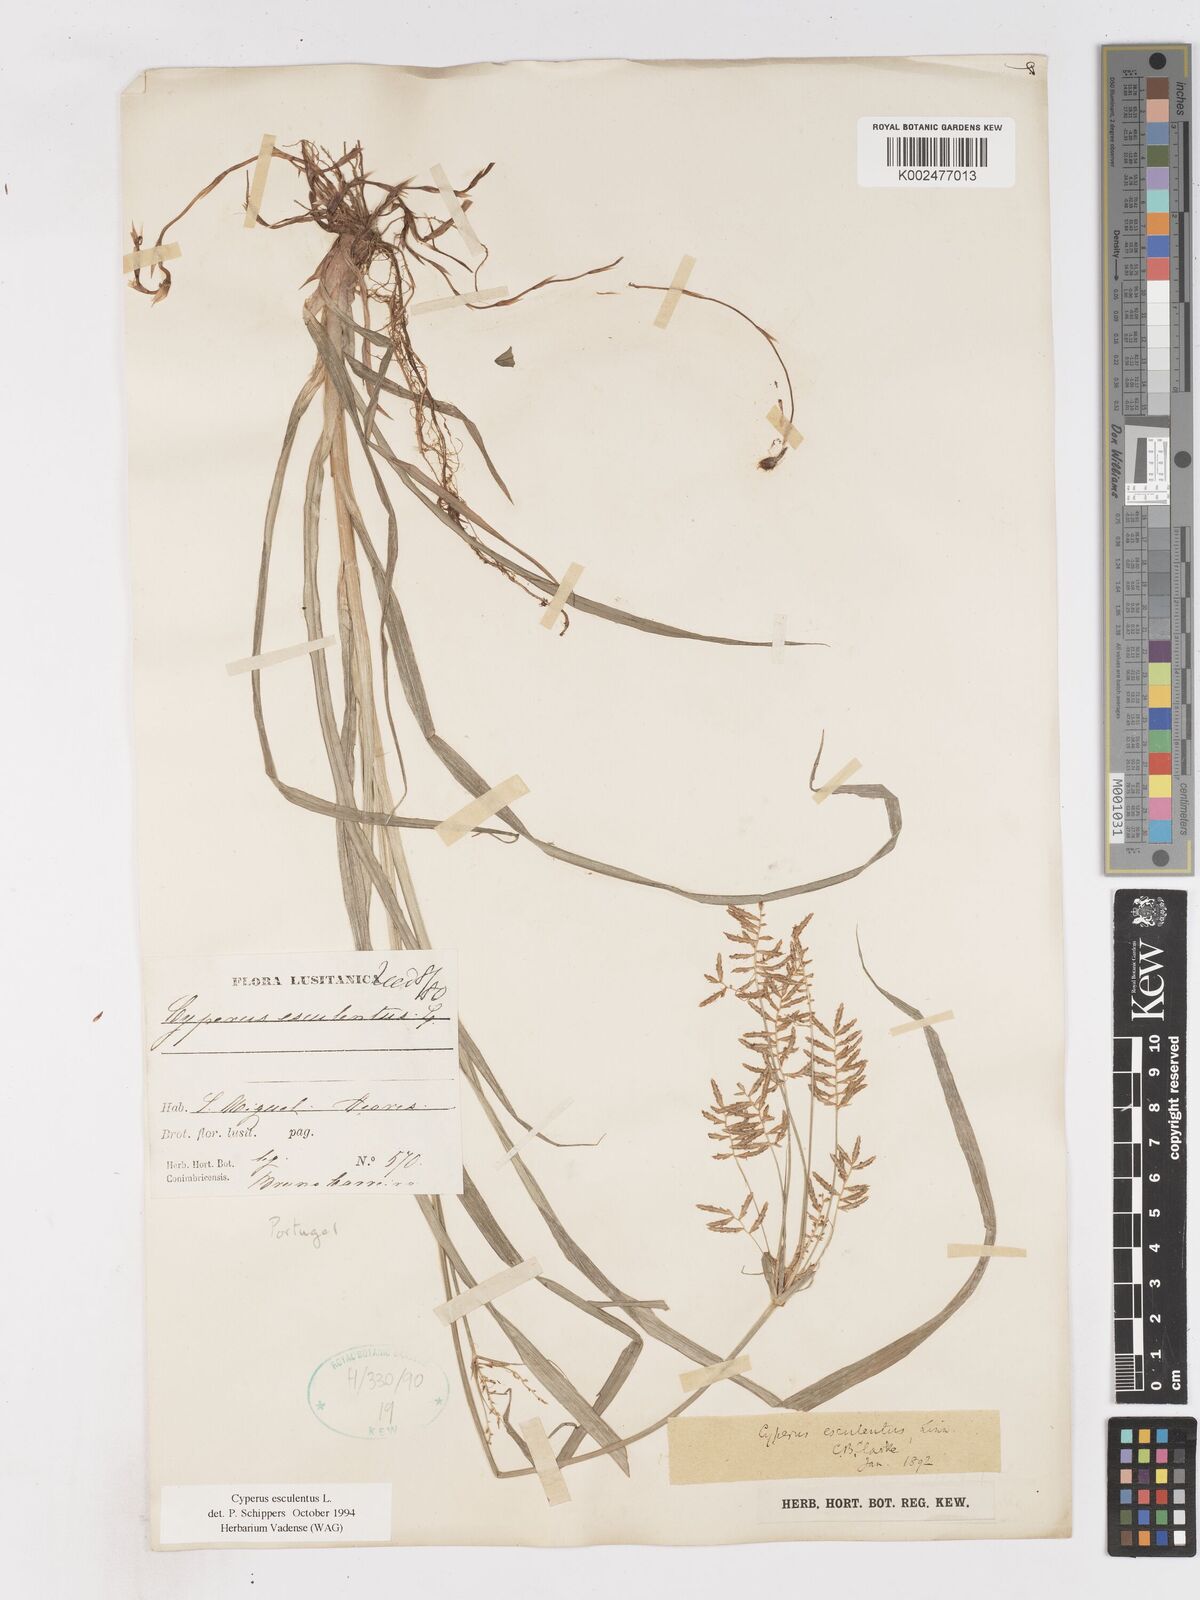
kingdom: Plantae
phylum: Tracheophyta
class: Liliopsida
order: Poales
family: Cyperaceae
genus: Cyperus
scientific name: Cyperus esculentus
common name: Yellow nutsedge
